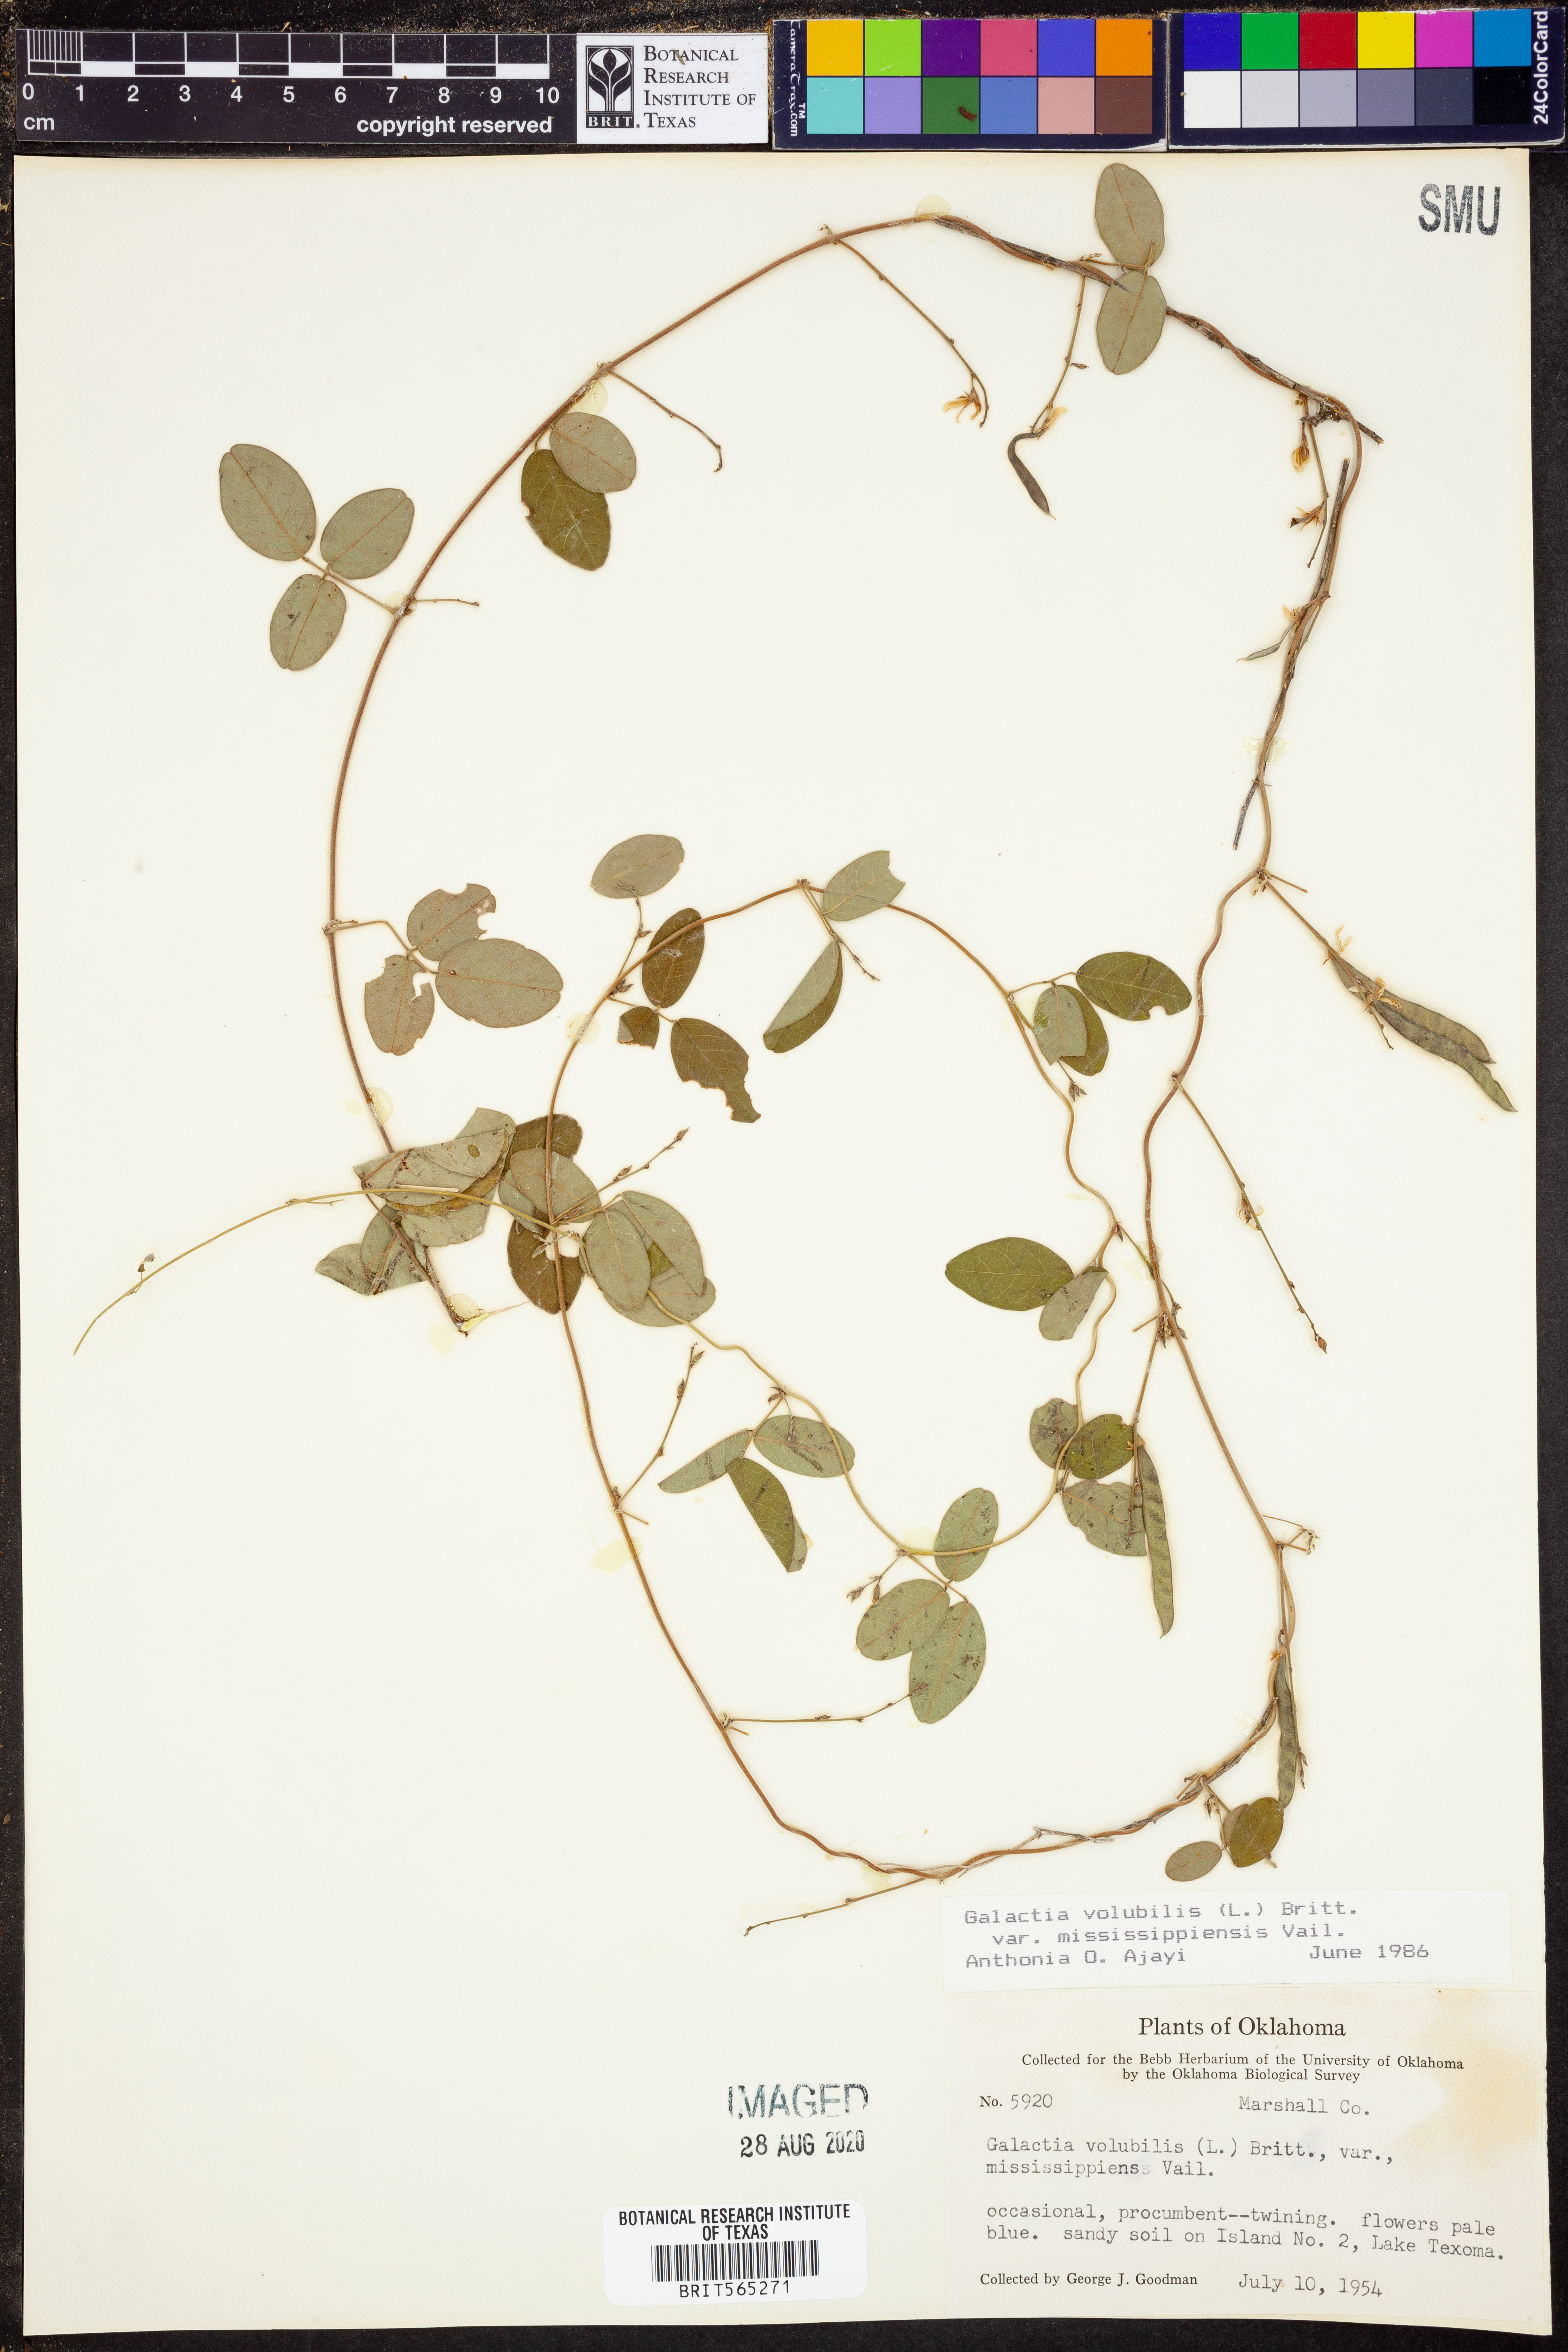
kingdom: Plantae
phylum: Tracheophyta
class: Magnoliopsida
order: Fabales
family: Fabaceae
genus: Galactia
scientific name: Galactia volubilis
